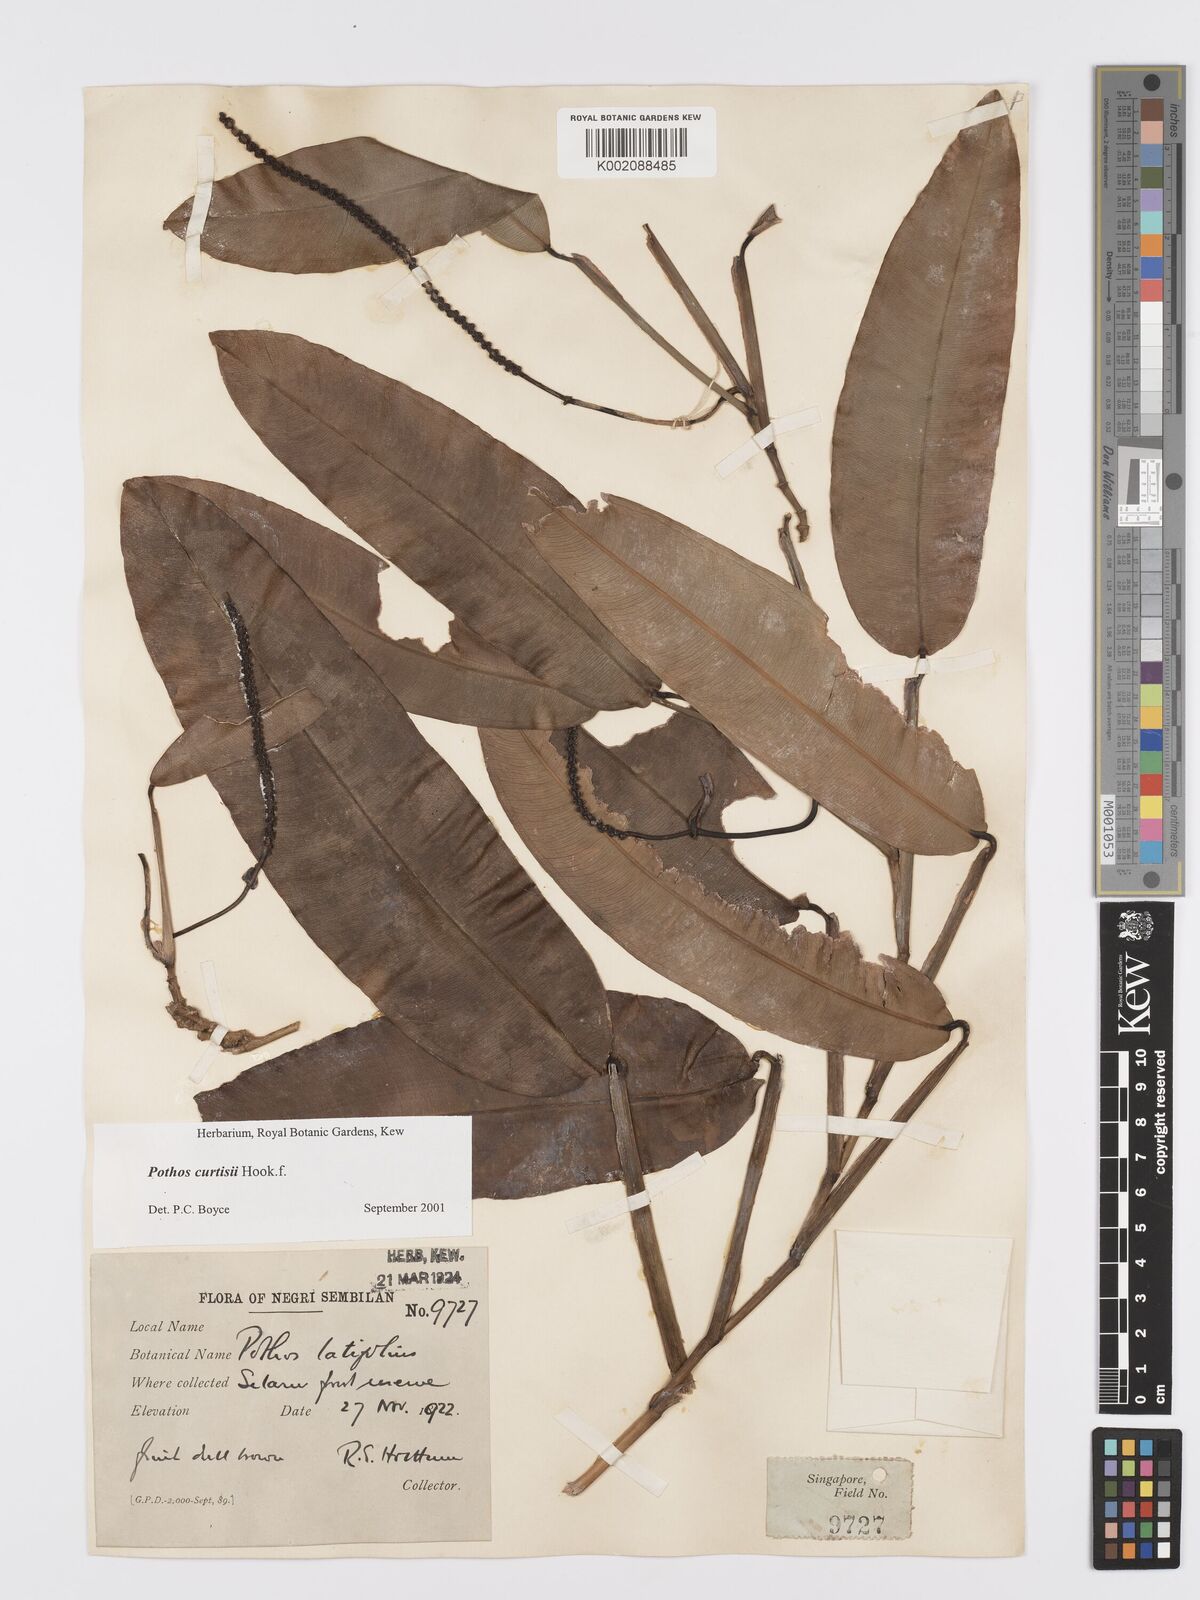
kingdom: Plantae
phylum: Tracheophyta
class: Liliopsida
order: Alismatales
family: Araceae
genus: Pothos
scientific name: Pothos curtisii
